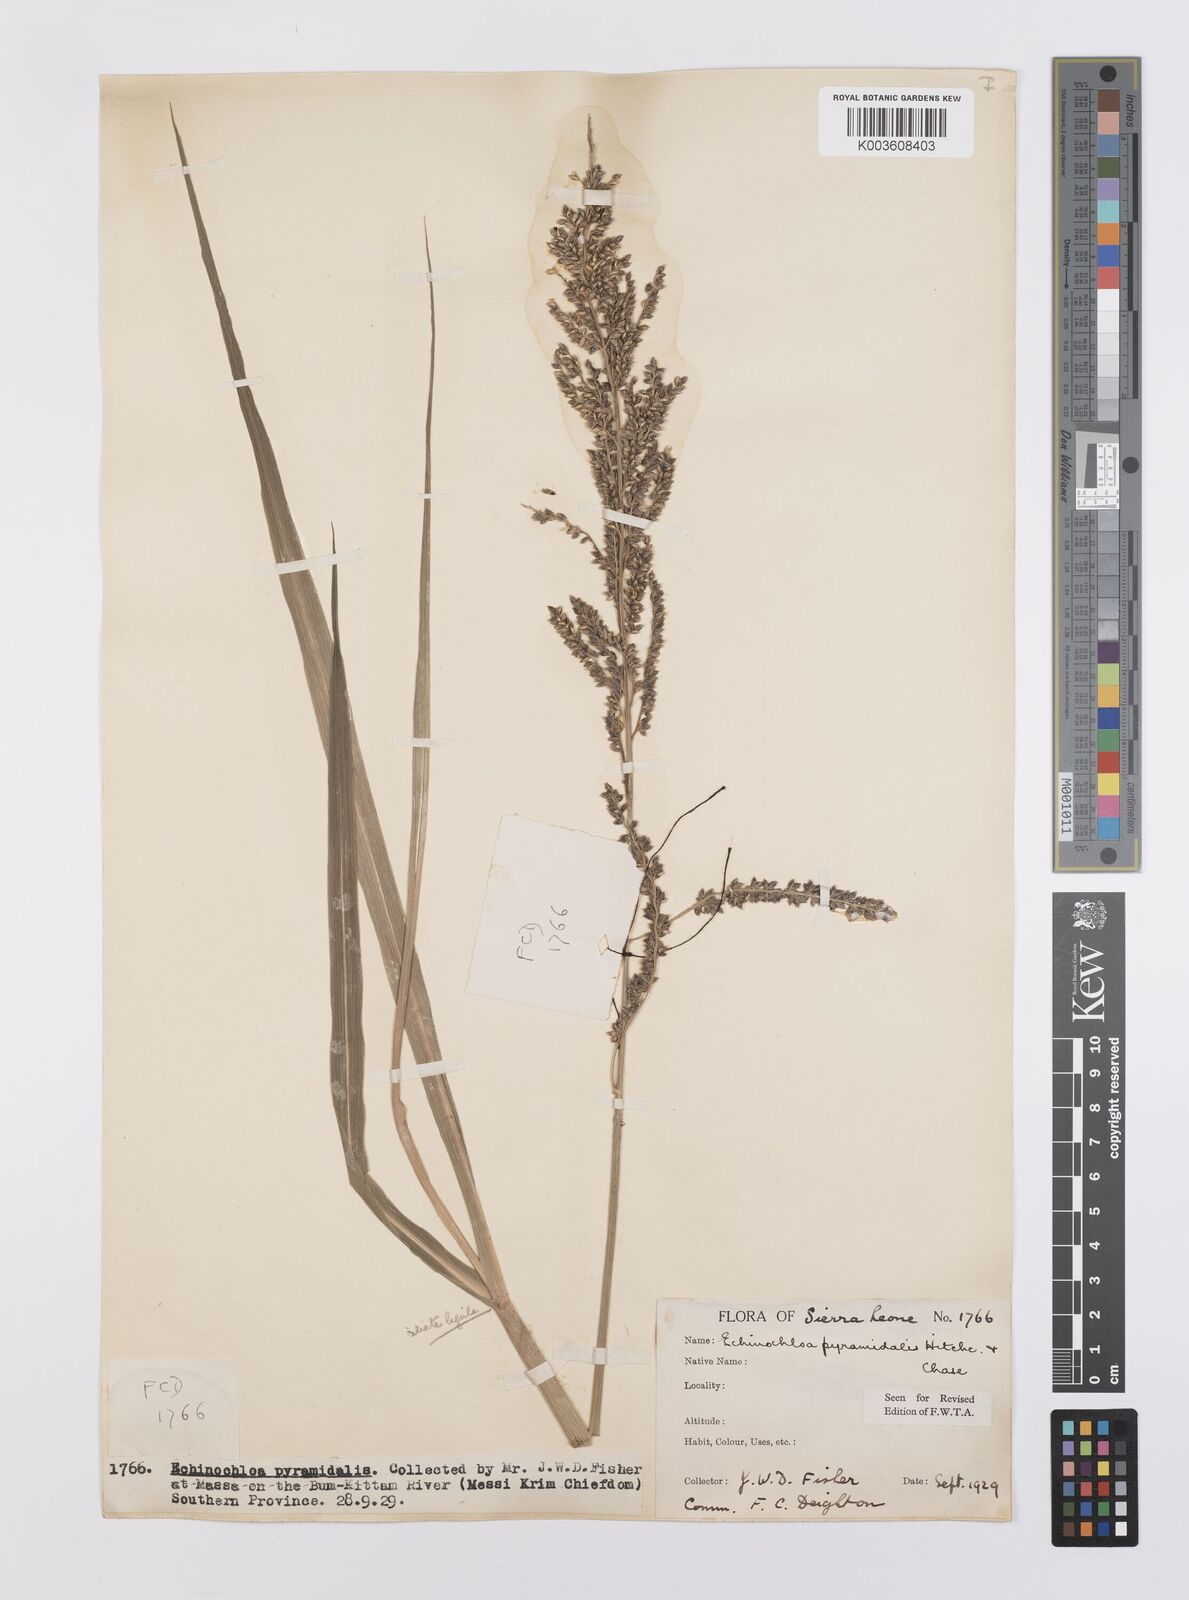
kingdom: Plantae
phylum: Tracheophyta
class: Liliopsida
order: Poales
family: Poaceae
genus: Echinochloa
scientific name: Echinochloa pyramidalis
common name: Antelope grass
